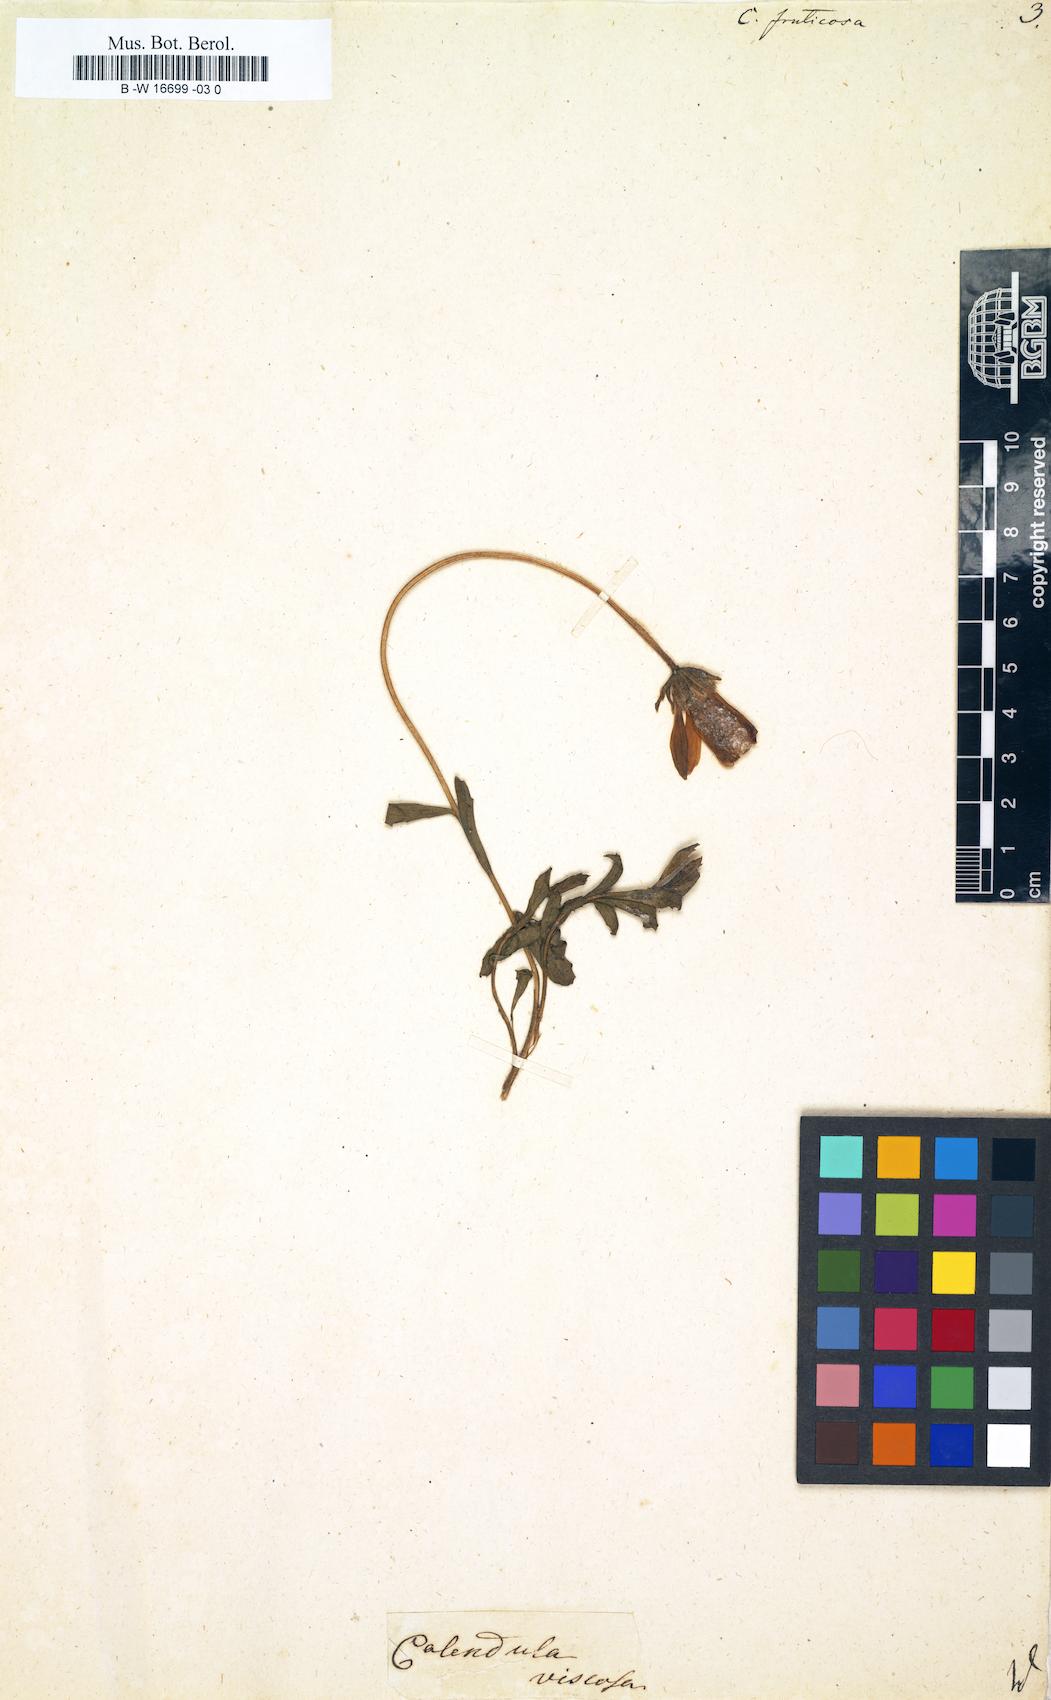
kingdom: Plantae
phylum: Tracheophyta
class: Magnoliopsida
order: Asterales
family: Asteraceae
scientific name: Asteraceae
